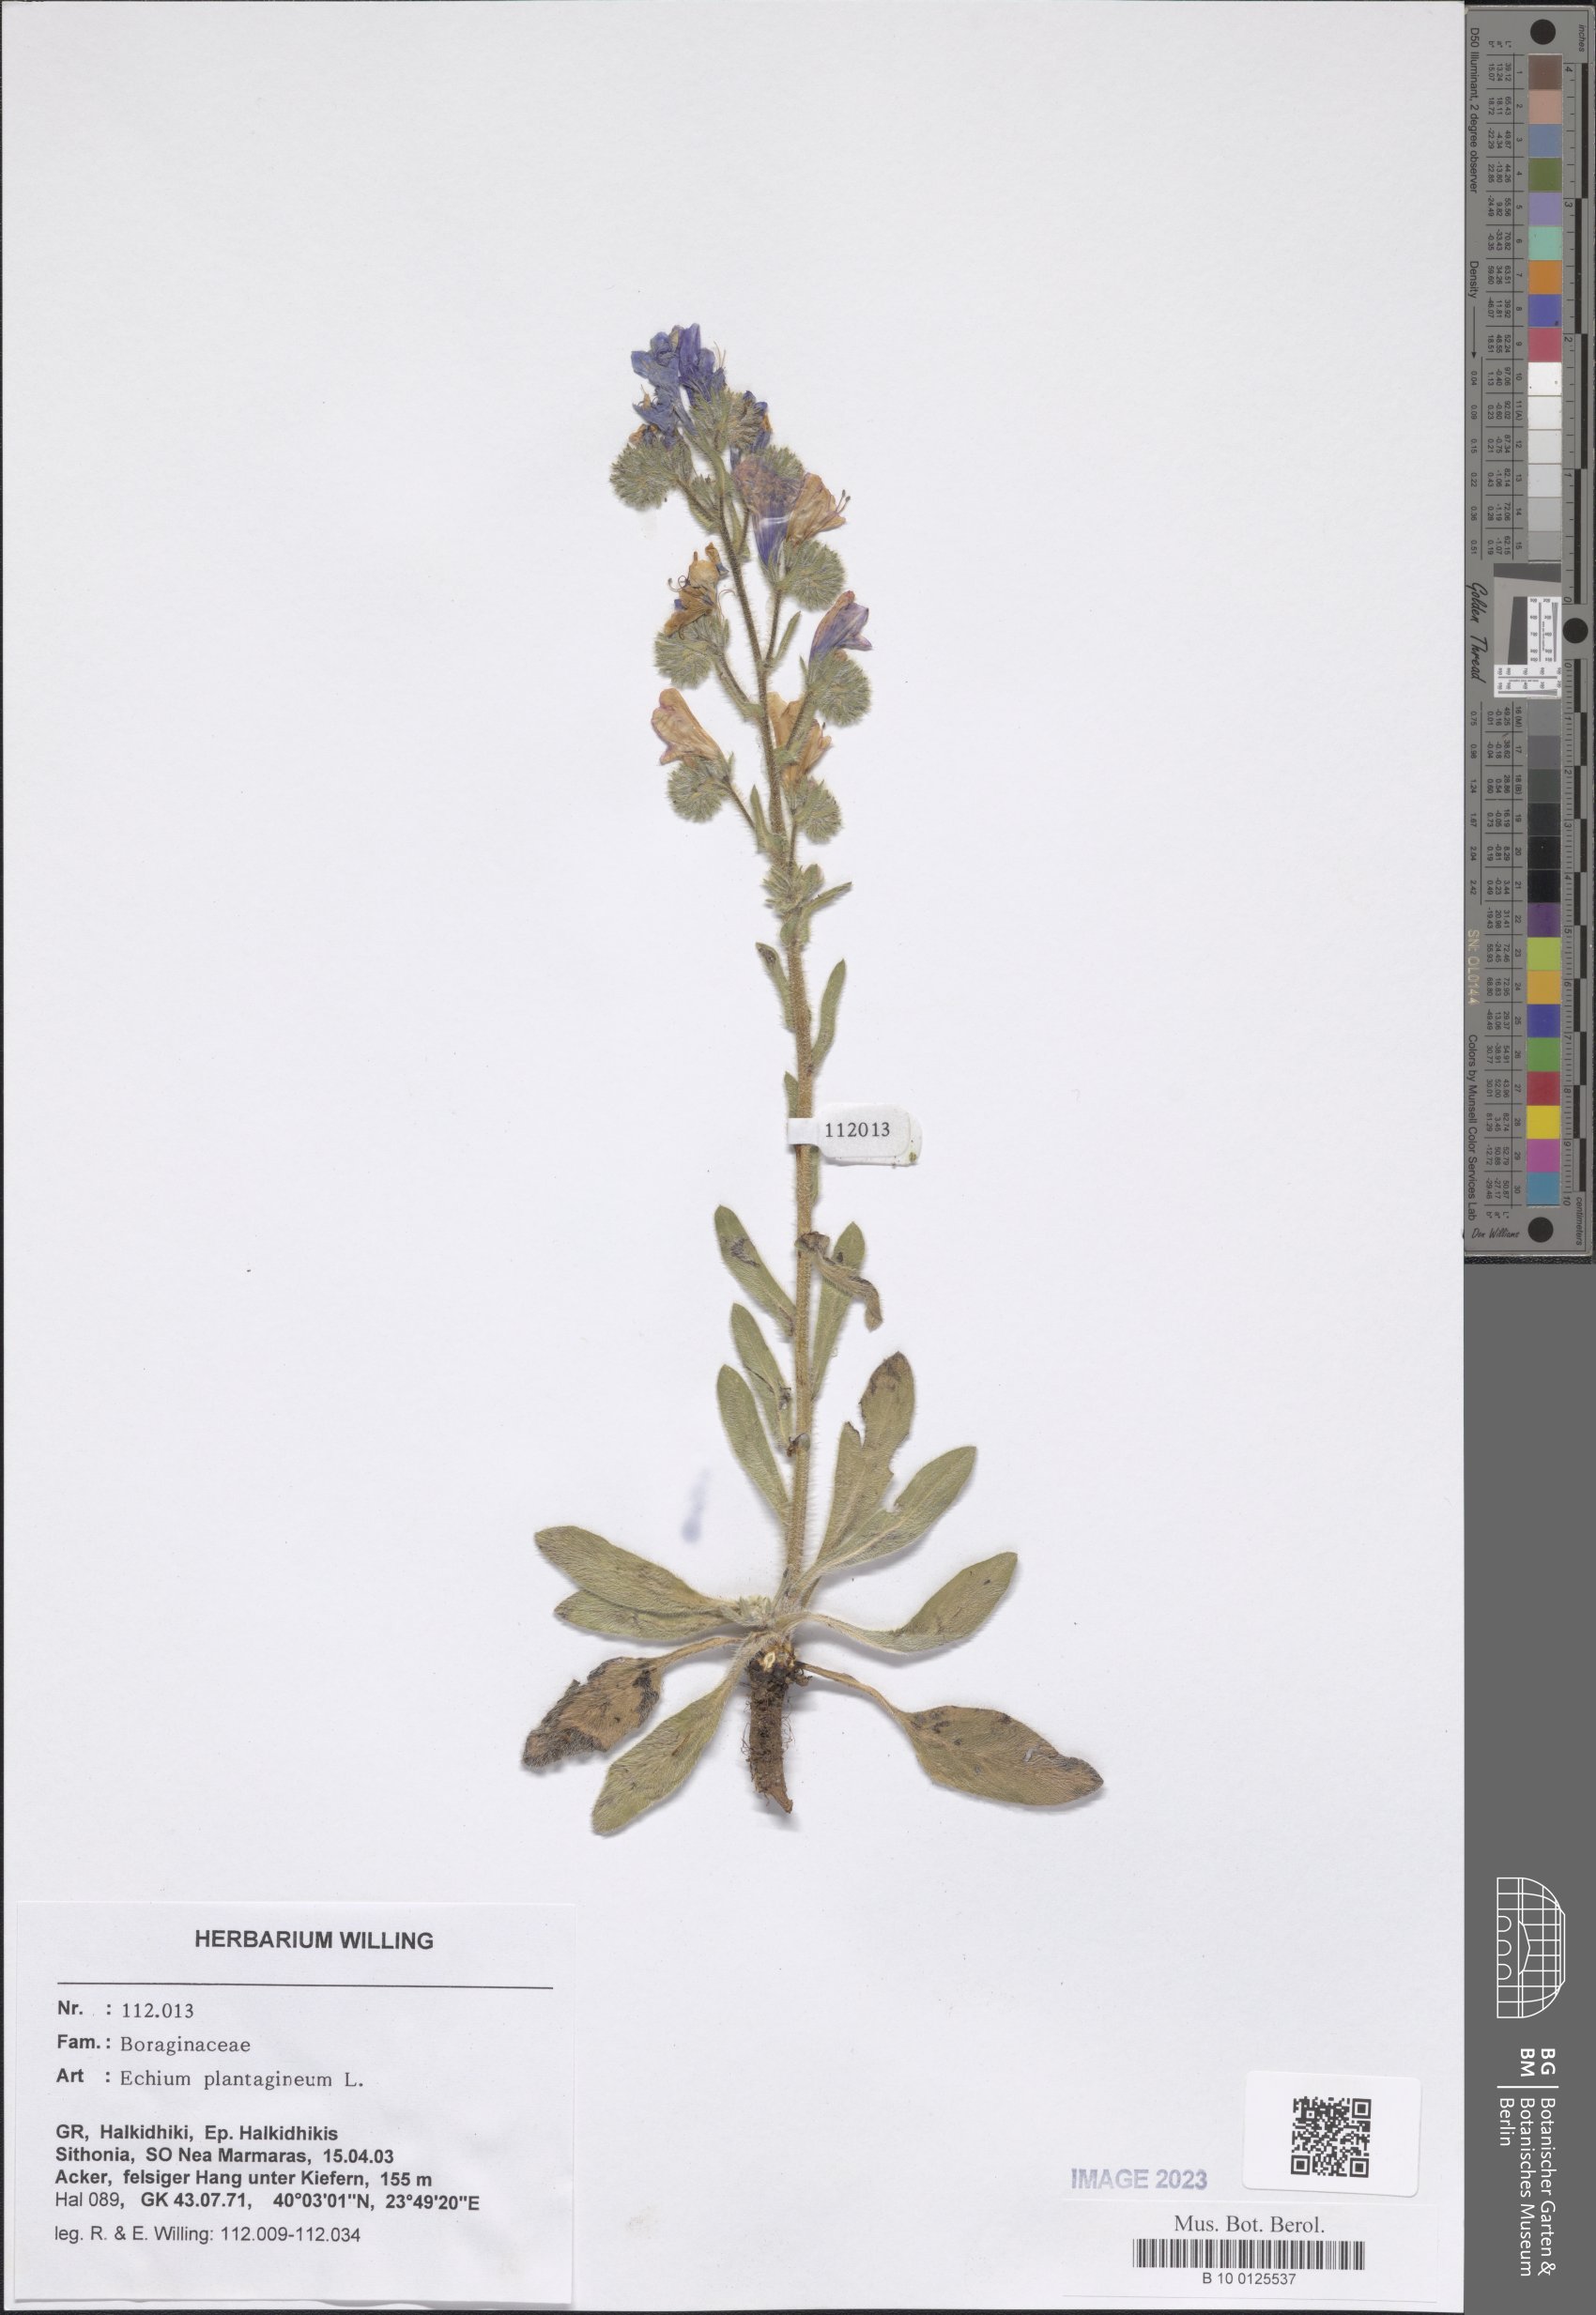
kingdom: Plantae
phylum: Tracheophyta
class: Magnoliopsida
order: Boraginales
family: Boraginaceae
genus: Echium
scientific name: Echium plantagineum
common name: Purple viper's-bugloss
